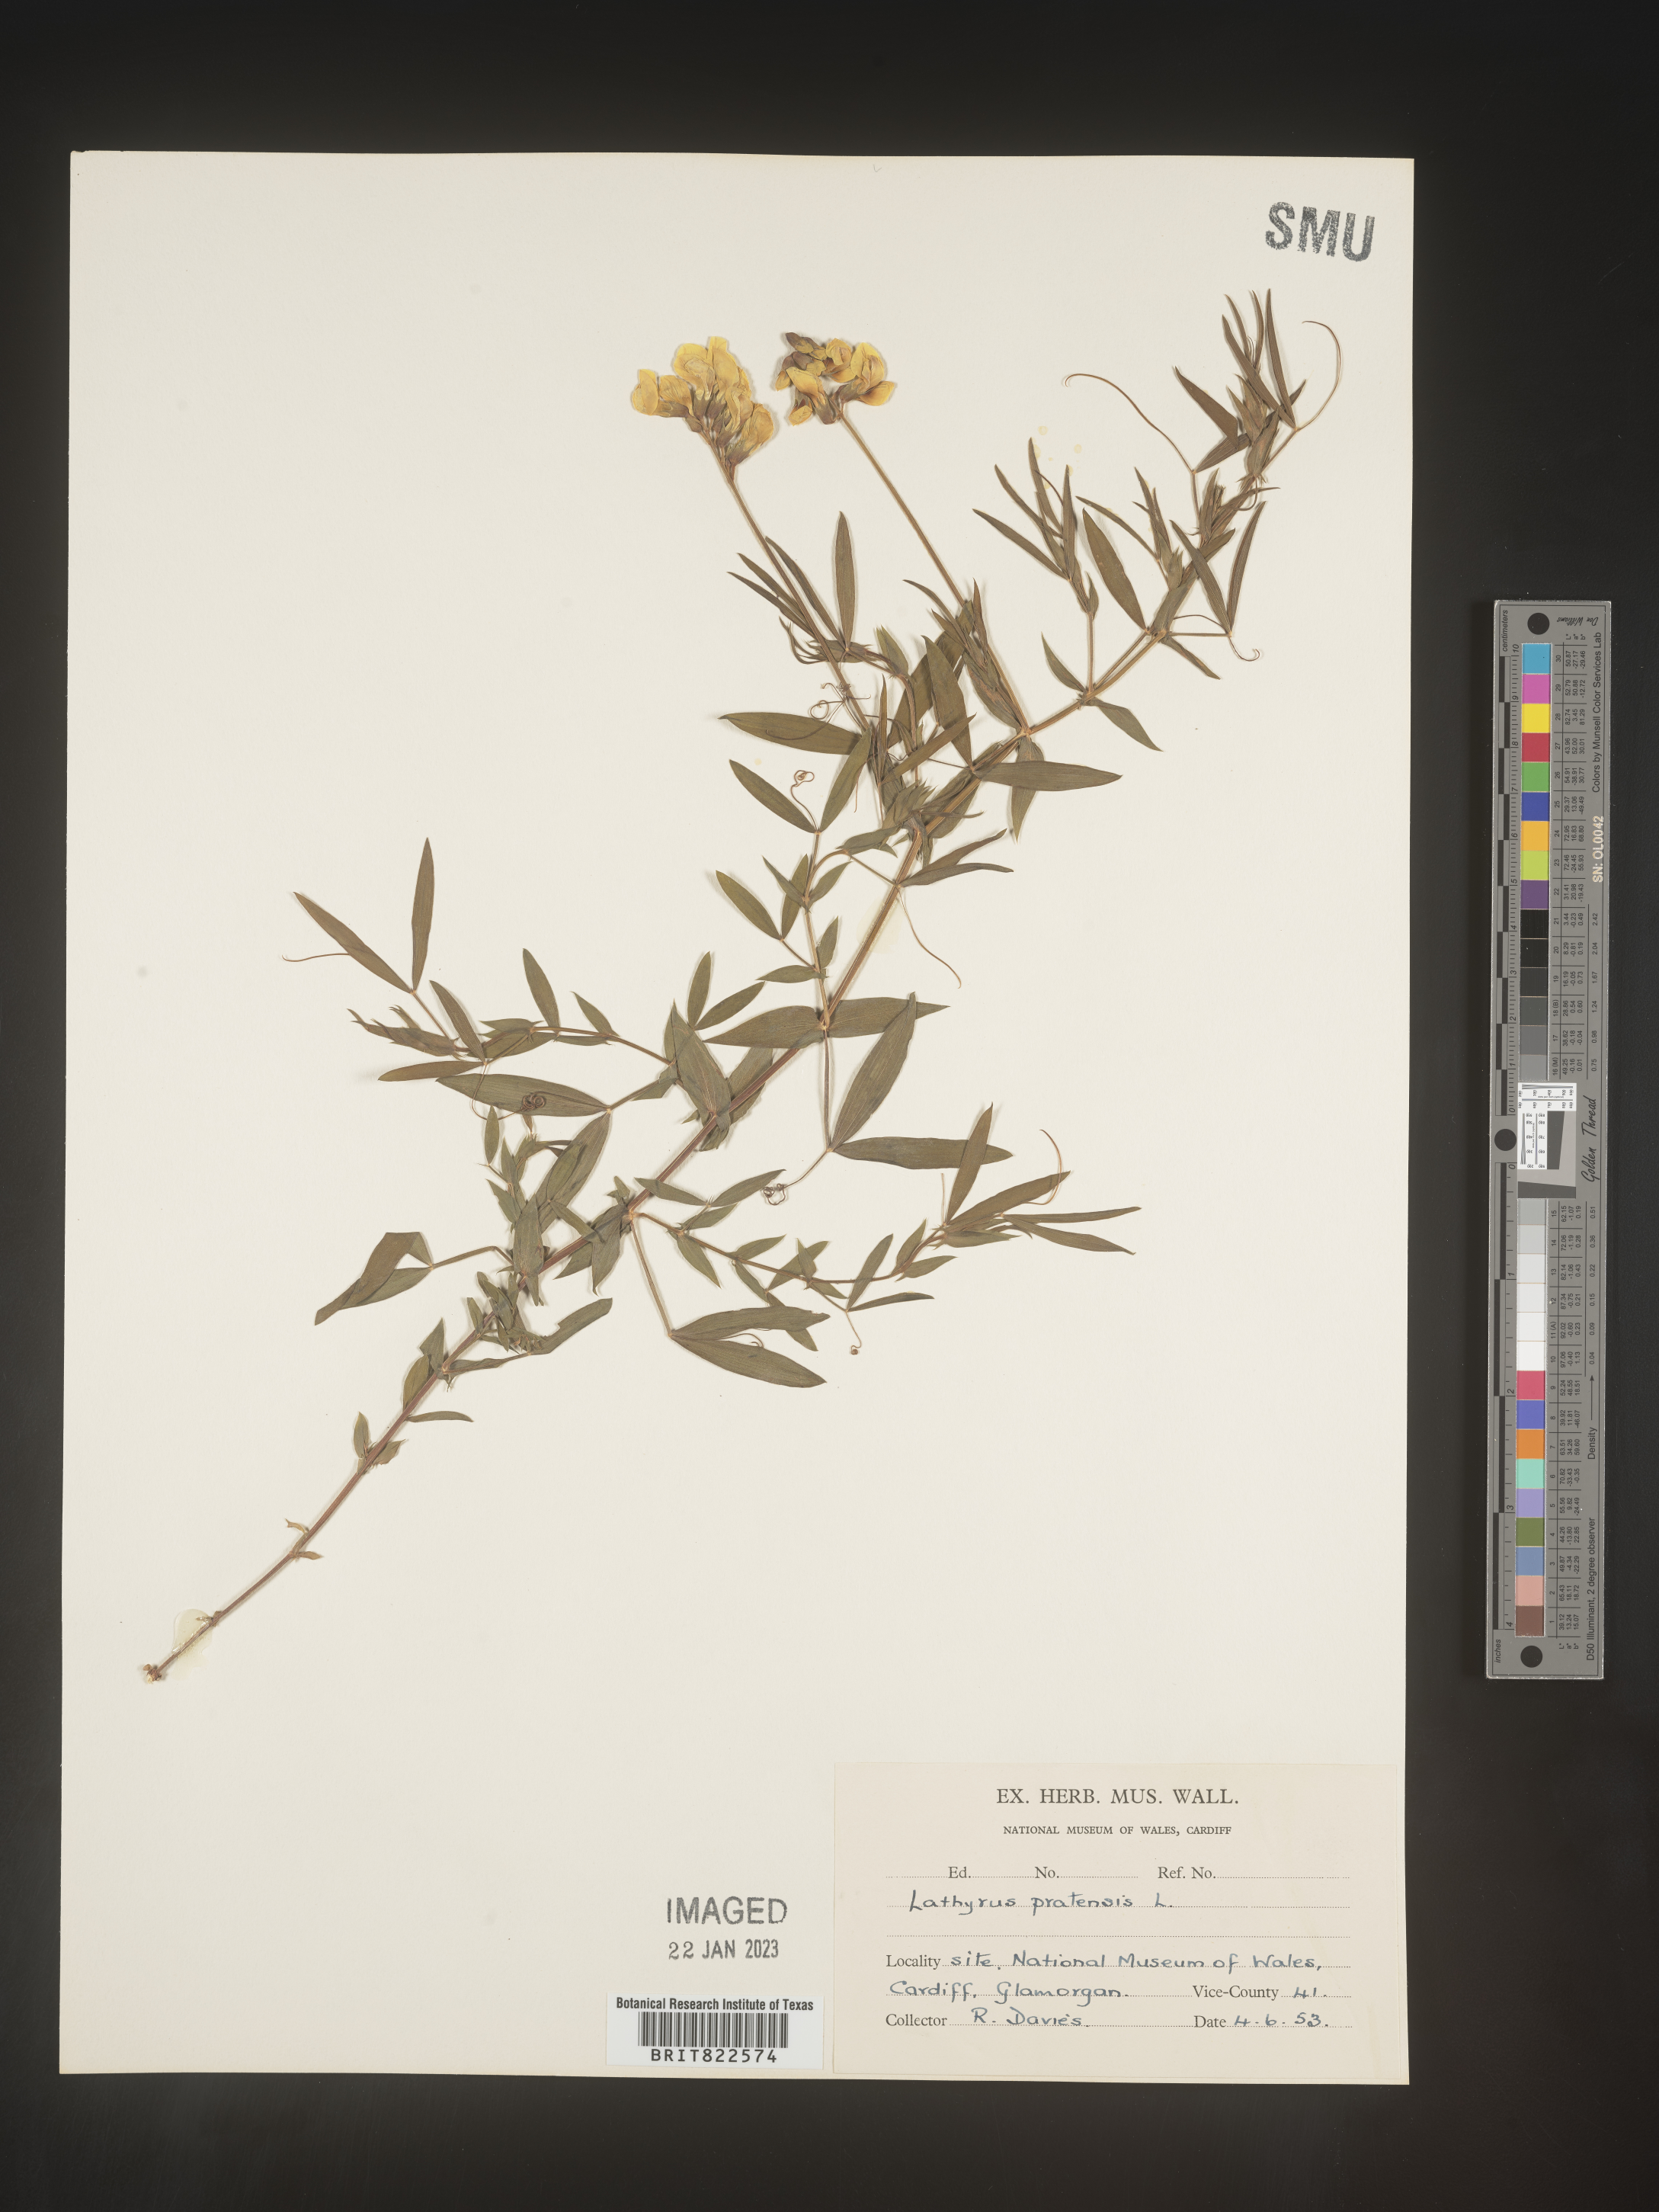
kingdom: Plantae
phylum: Tracheophyta
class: Magnoliopsida
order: Fabales
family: Fabaceae
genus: Lathyrus
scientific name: Lathyrus
